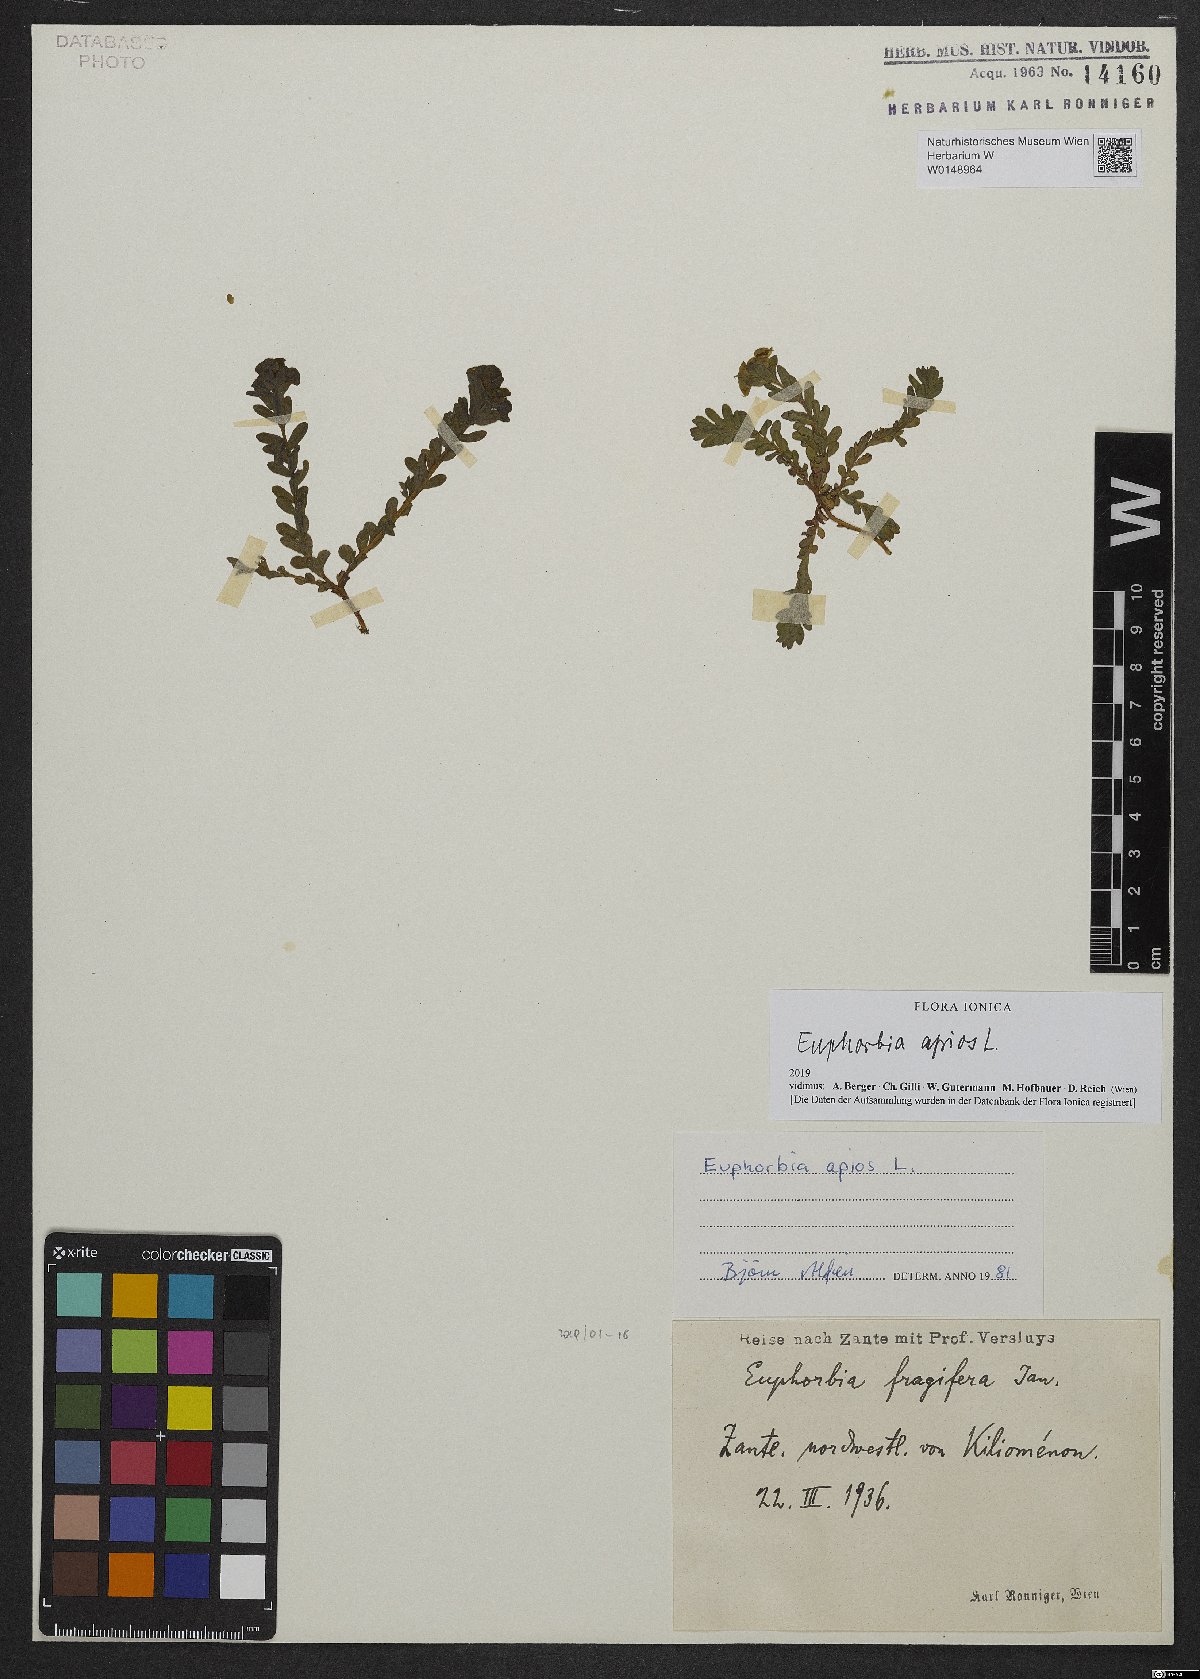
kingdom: Plantae
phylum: Tracheophyta
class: Magnoliopsida
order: Malpighiales
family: Euphorbiaceae
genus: Euphorbia
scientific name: Euphorbia apios
